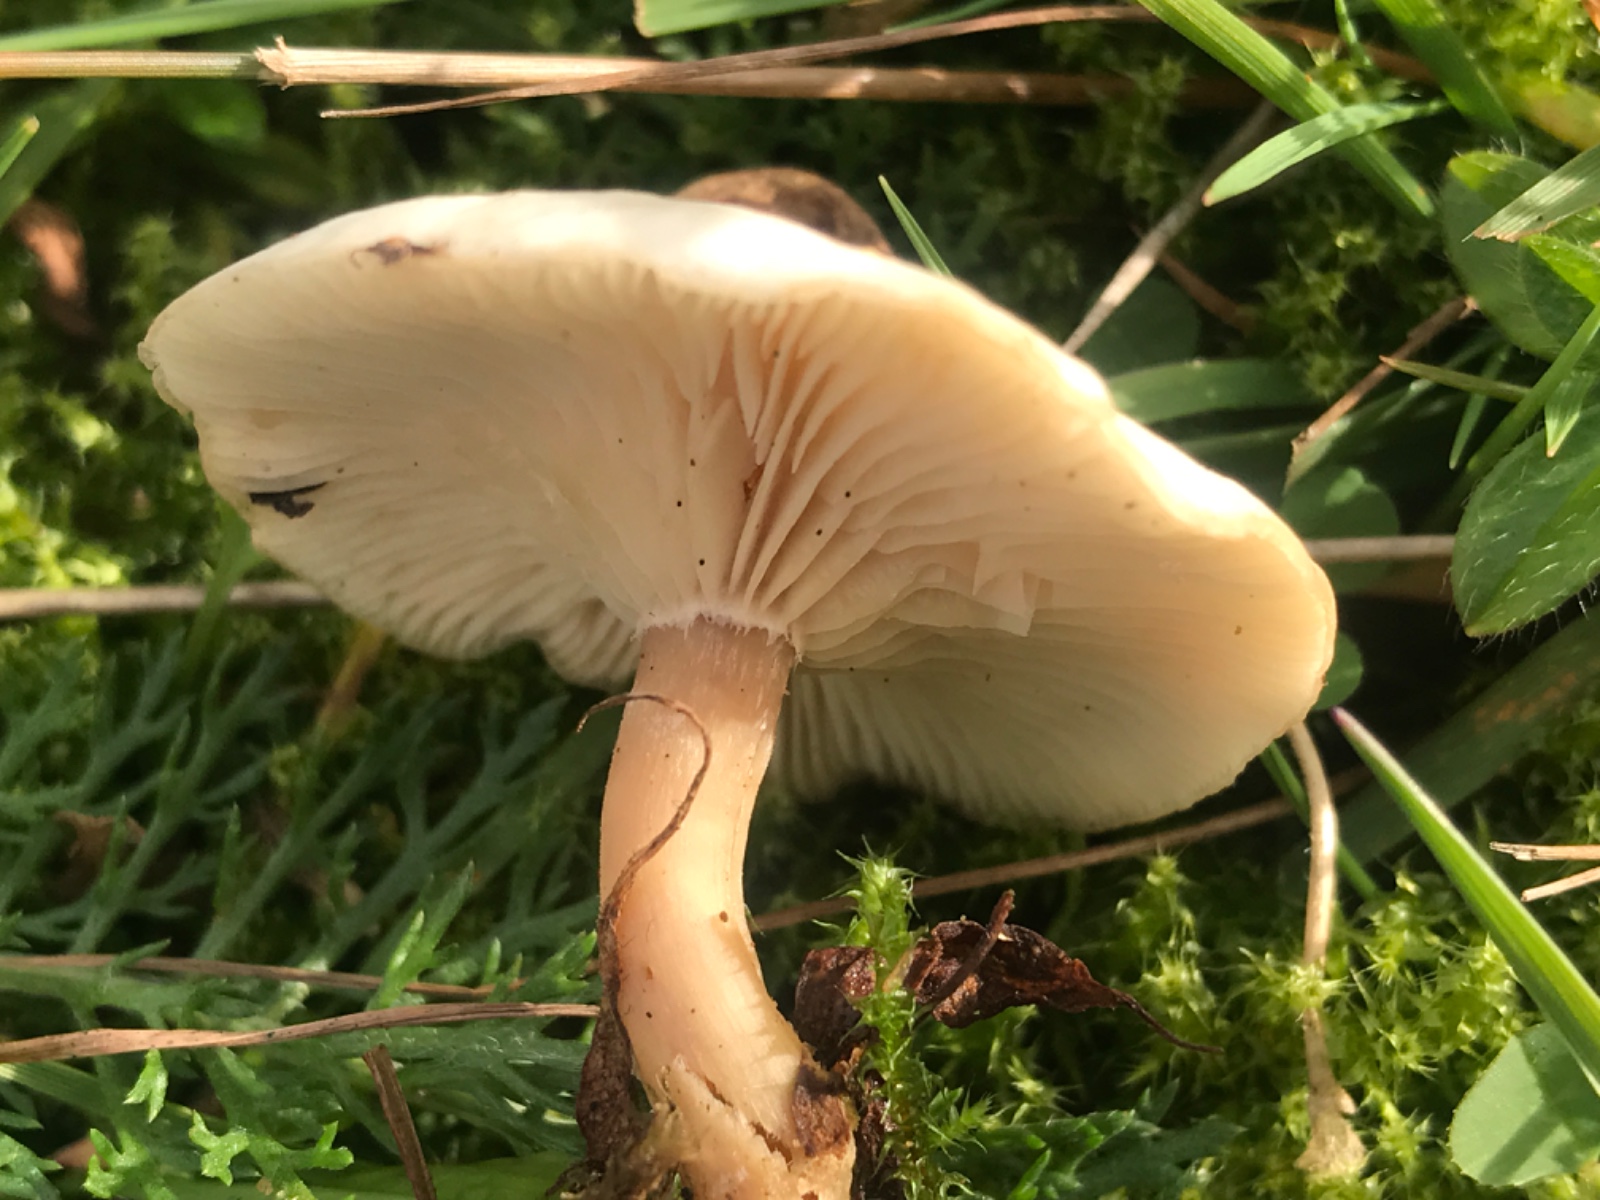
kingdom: Fungi
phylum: Basidiomycota
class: Agaricomycetes
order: Agaricales
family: Tricholomataceae
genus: Clitocybe
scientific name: Clitocybe
